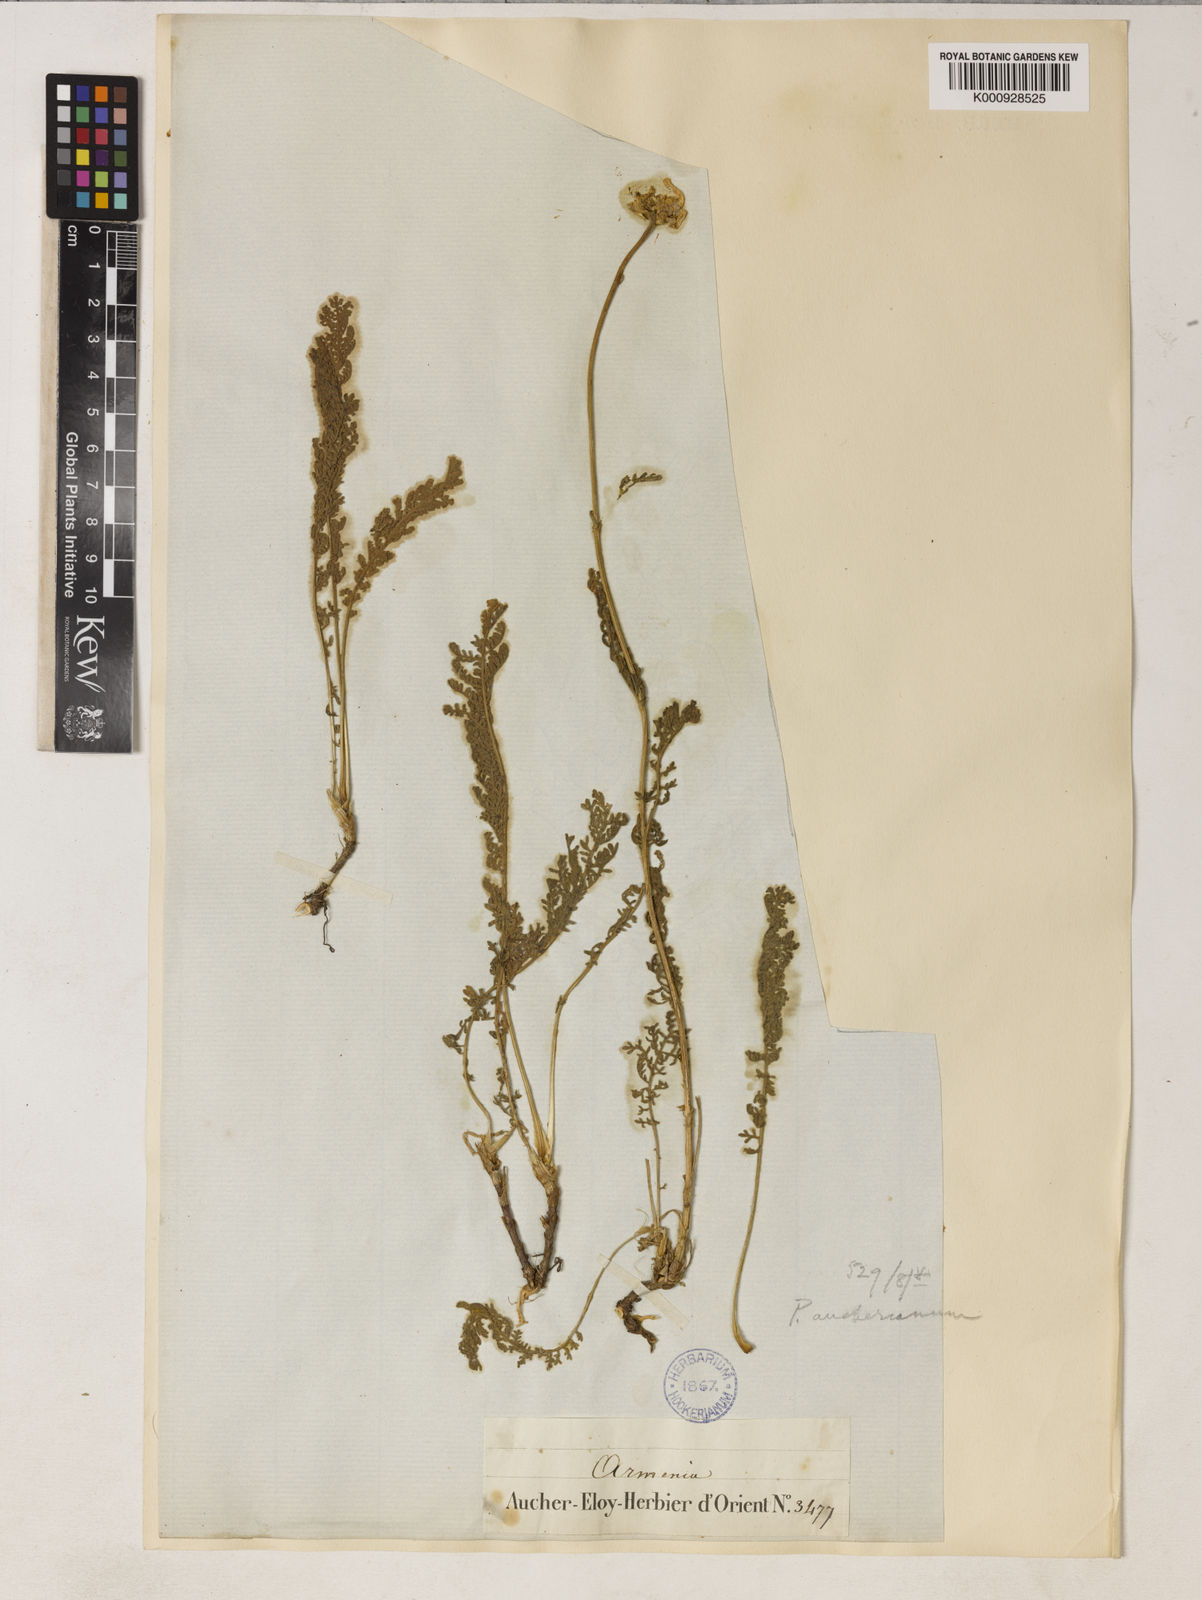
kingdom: Plantae
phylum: Tracheophyta
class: Magnoliopsida
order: Asterales
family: Asteraceae
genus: Tanacetum
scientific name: Tanacetum mucroniferum
